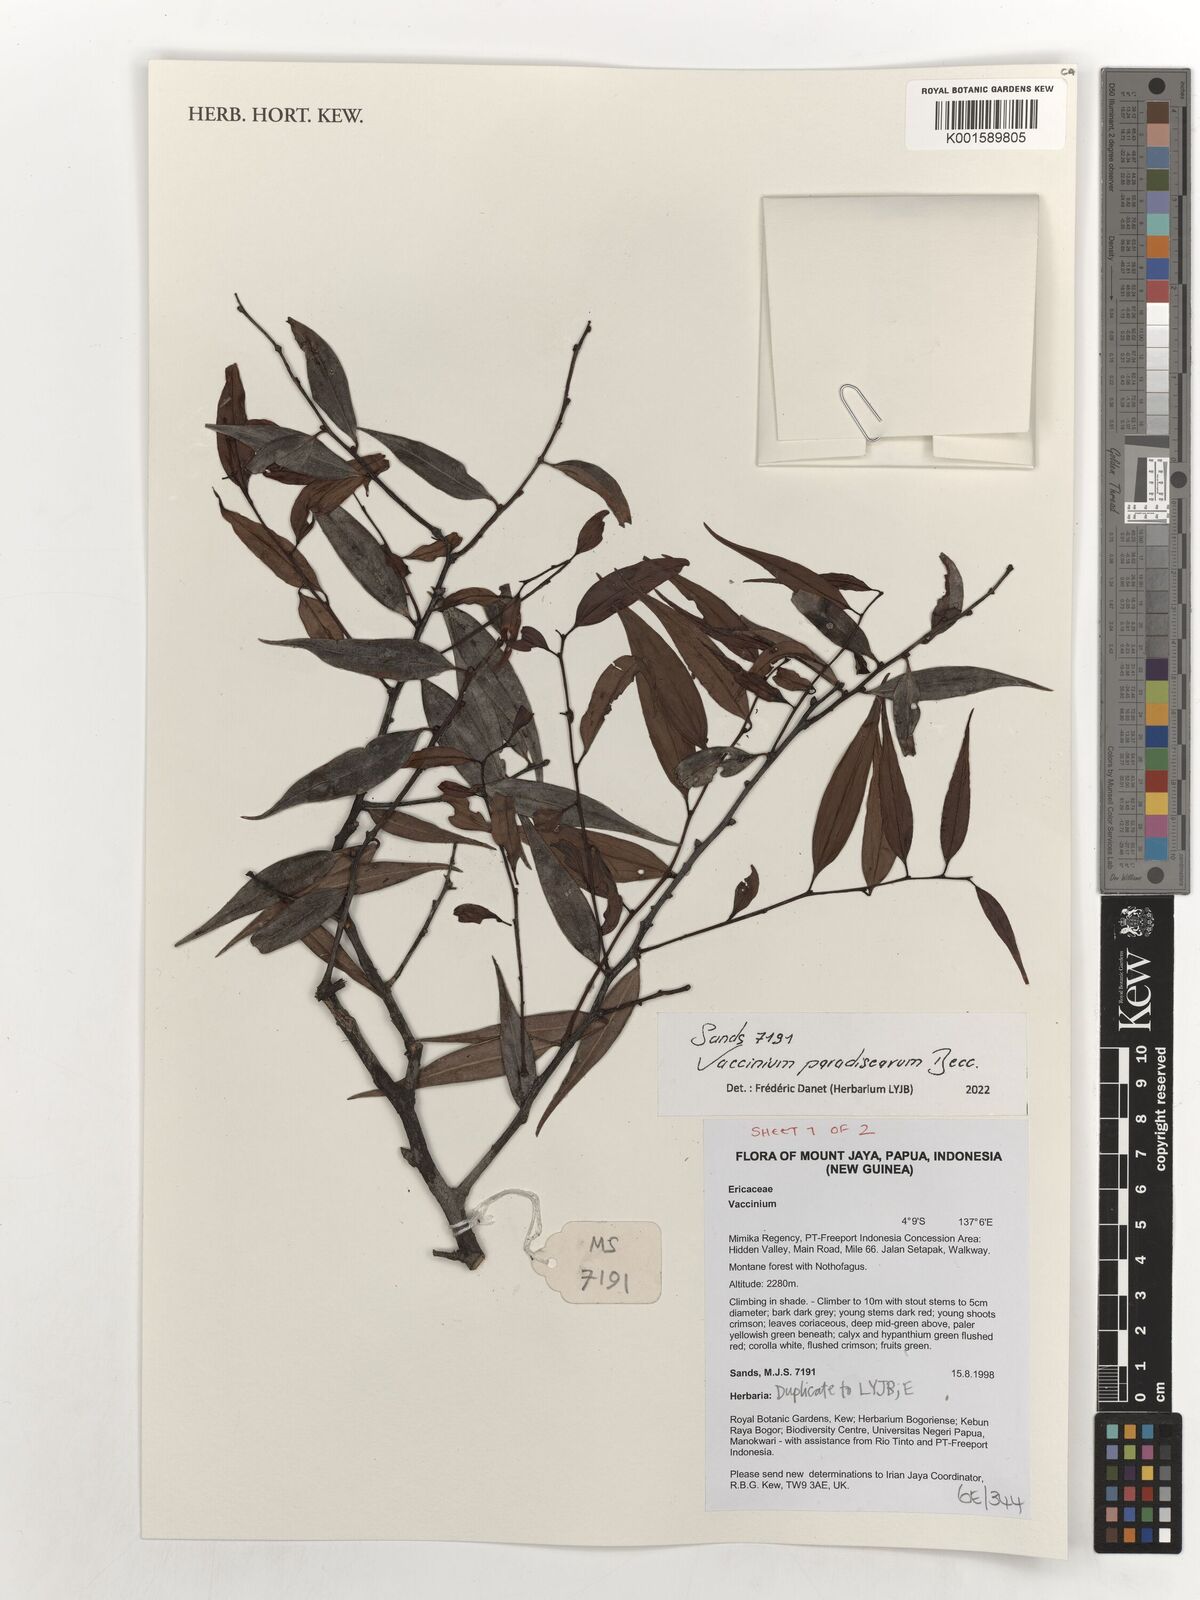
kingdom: Plantae
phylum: Tracheophyta
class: Magnoliopsida
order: Ericales
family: Ericaceae
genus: Vaccinium
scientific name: Vaccinium paradisearum
